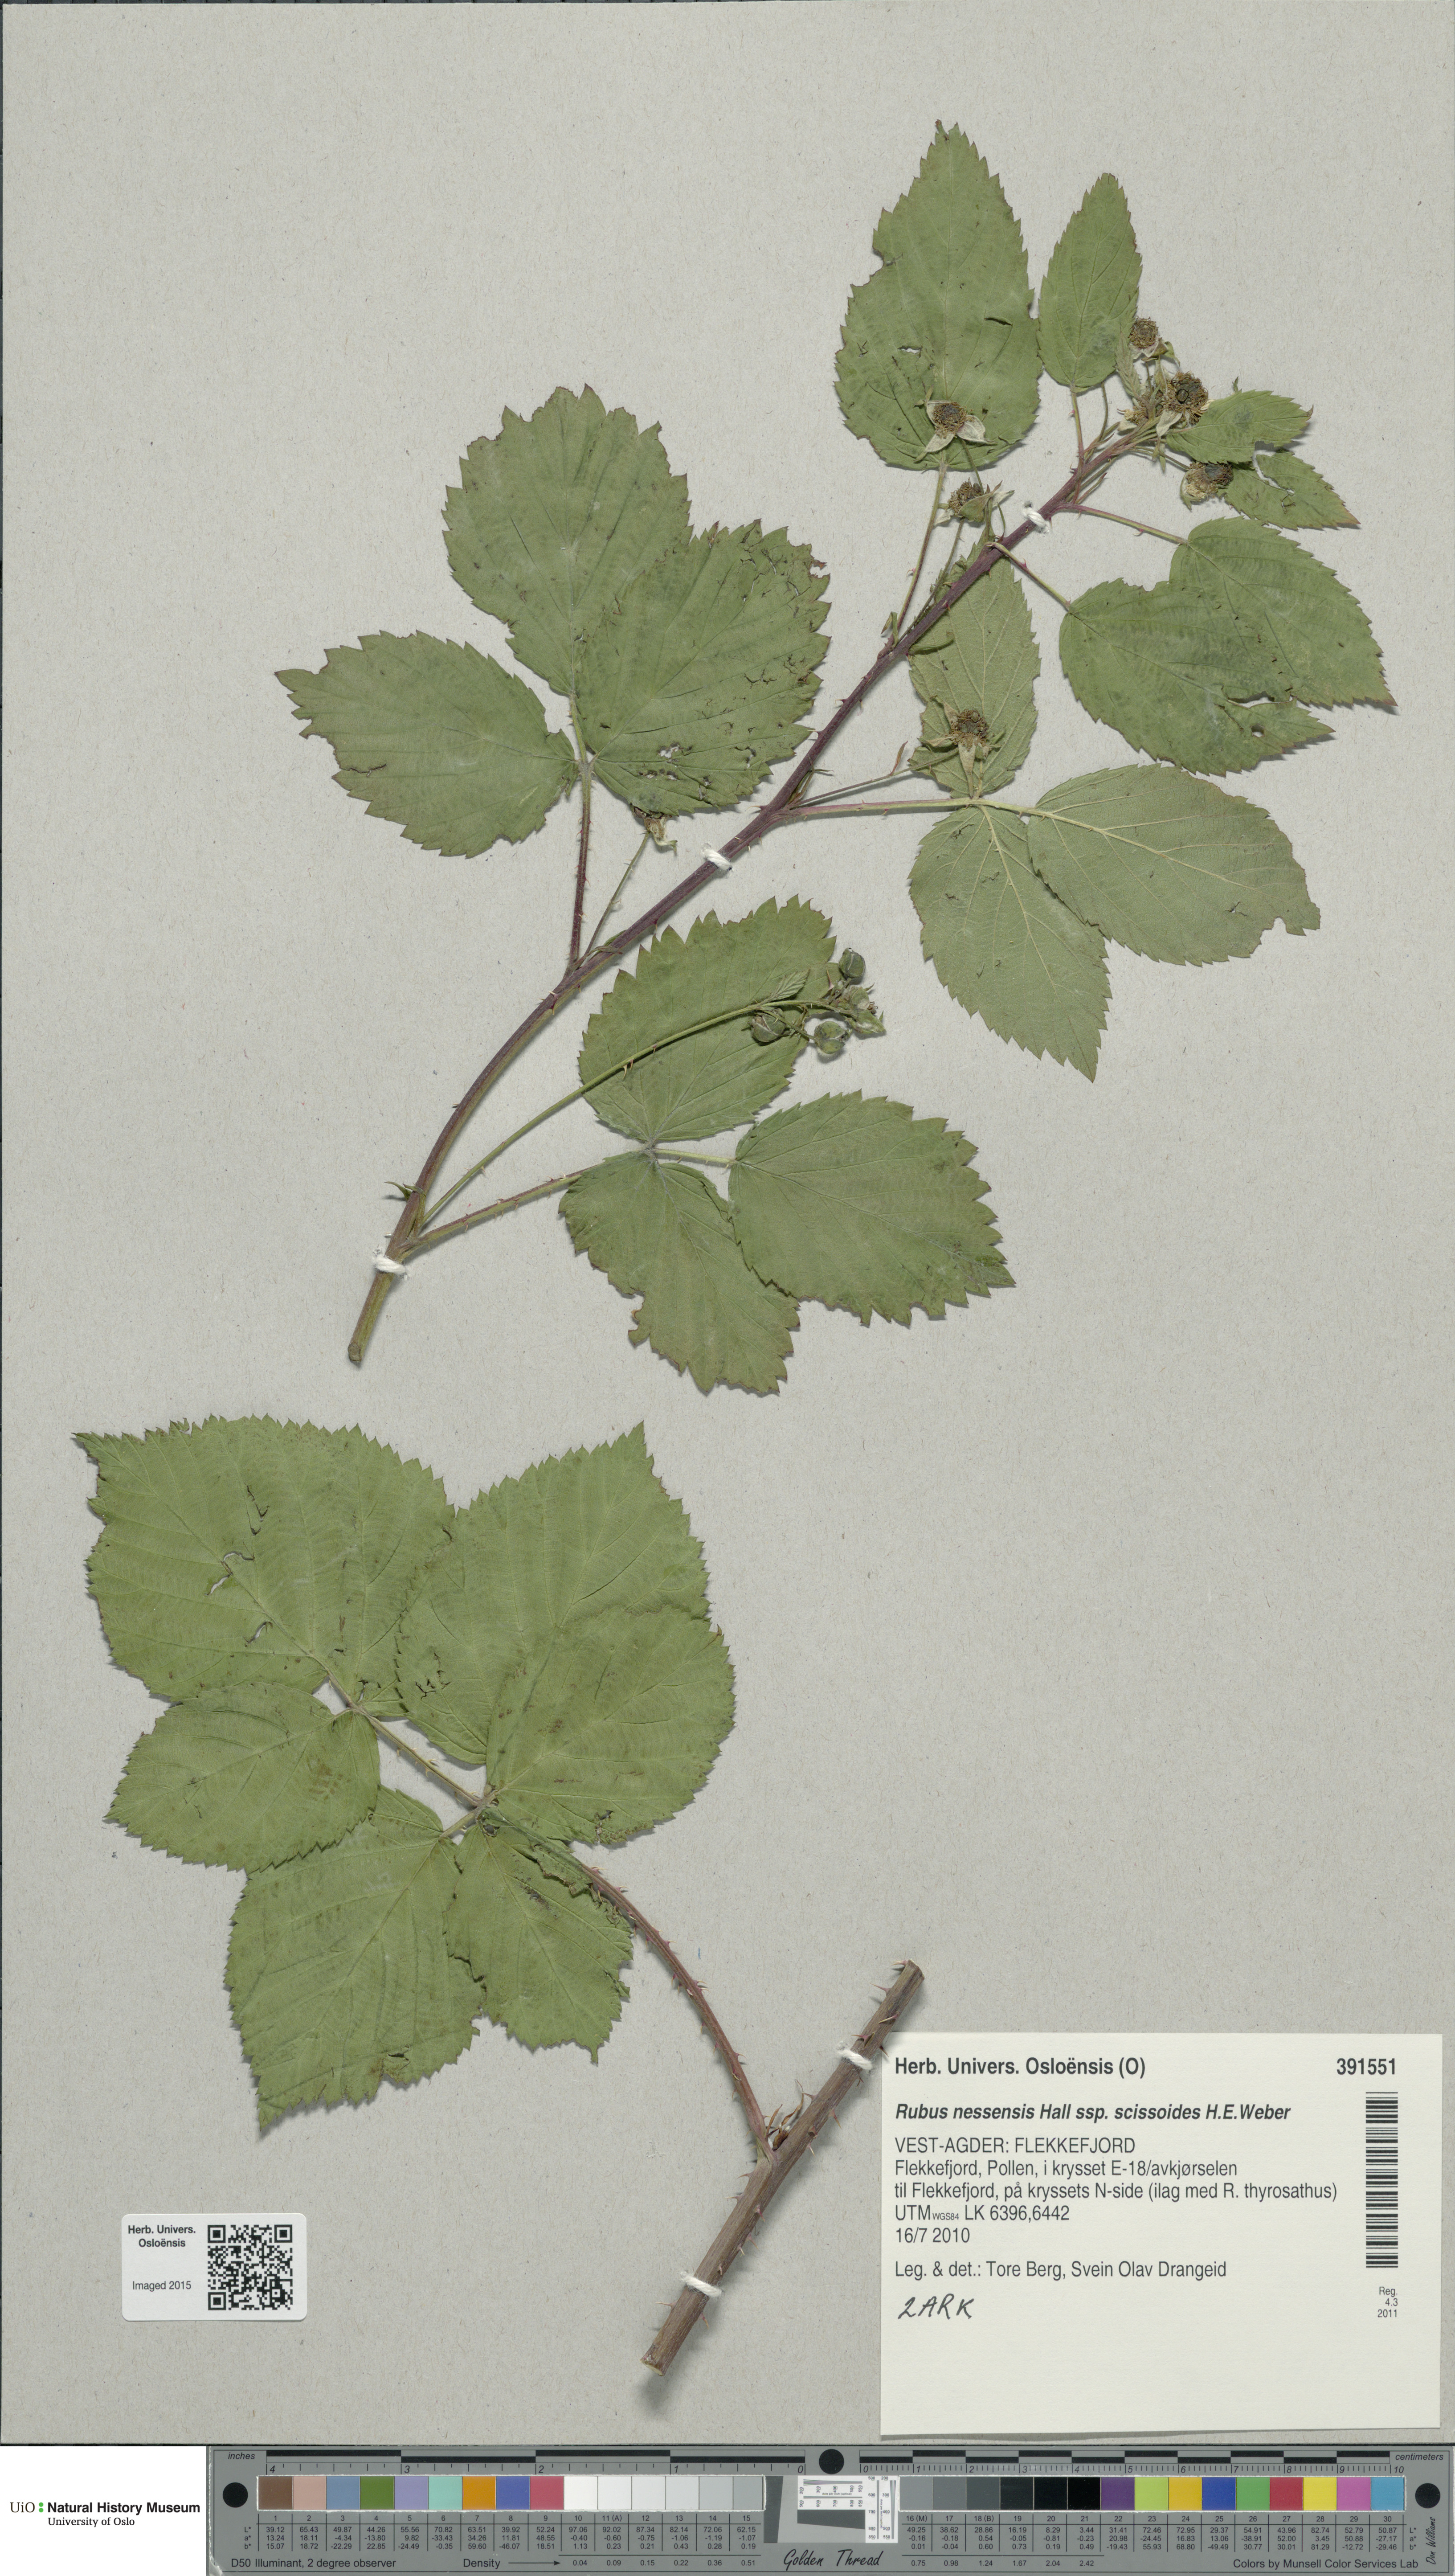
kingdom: Plantae
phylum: Tracheophyta
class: Magnoliopsida
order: Rosales
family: Rosaceae
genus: Rubus
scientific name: Rubus scissus
